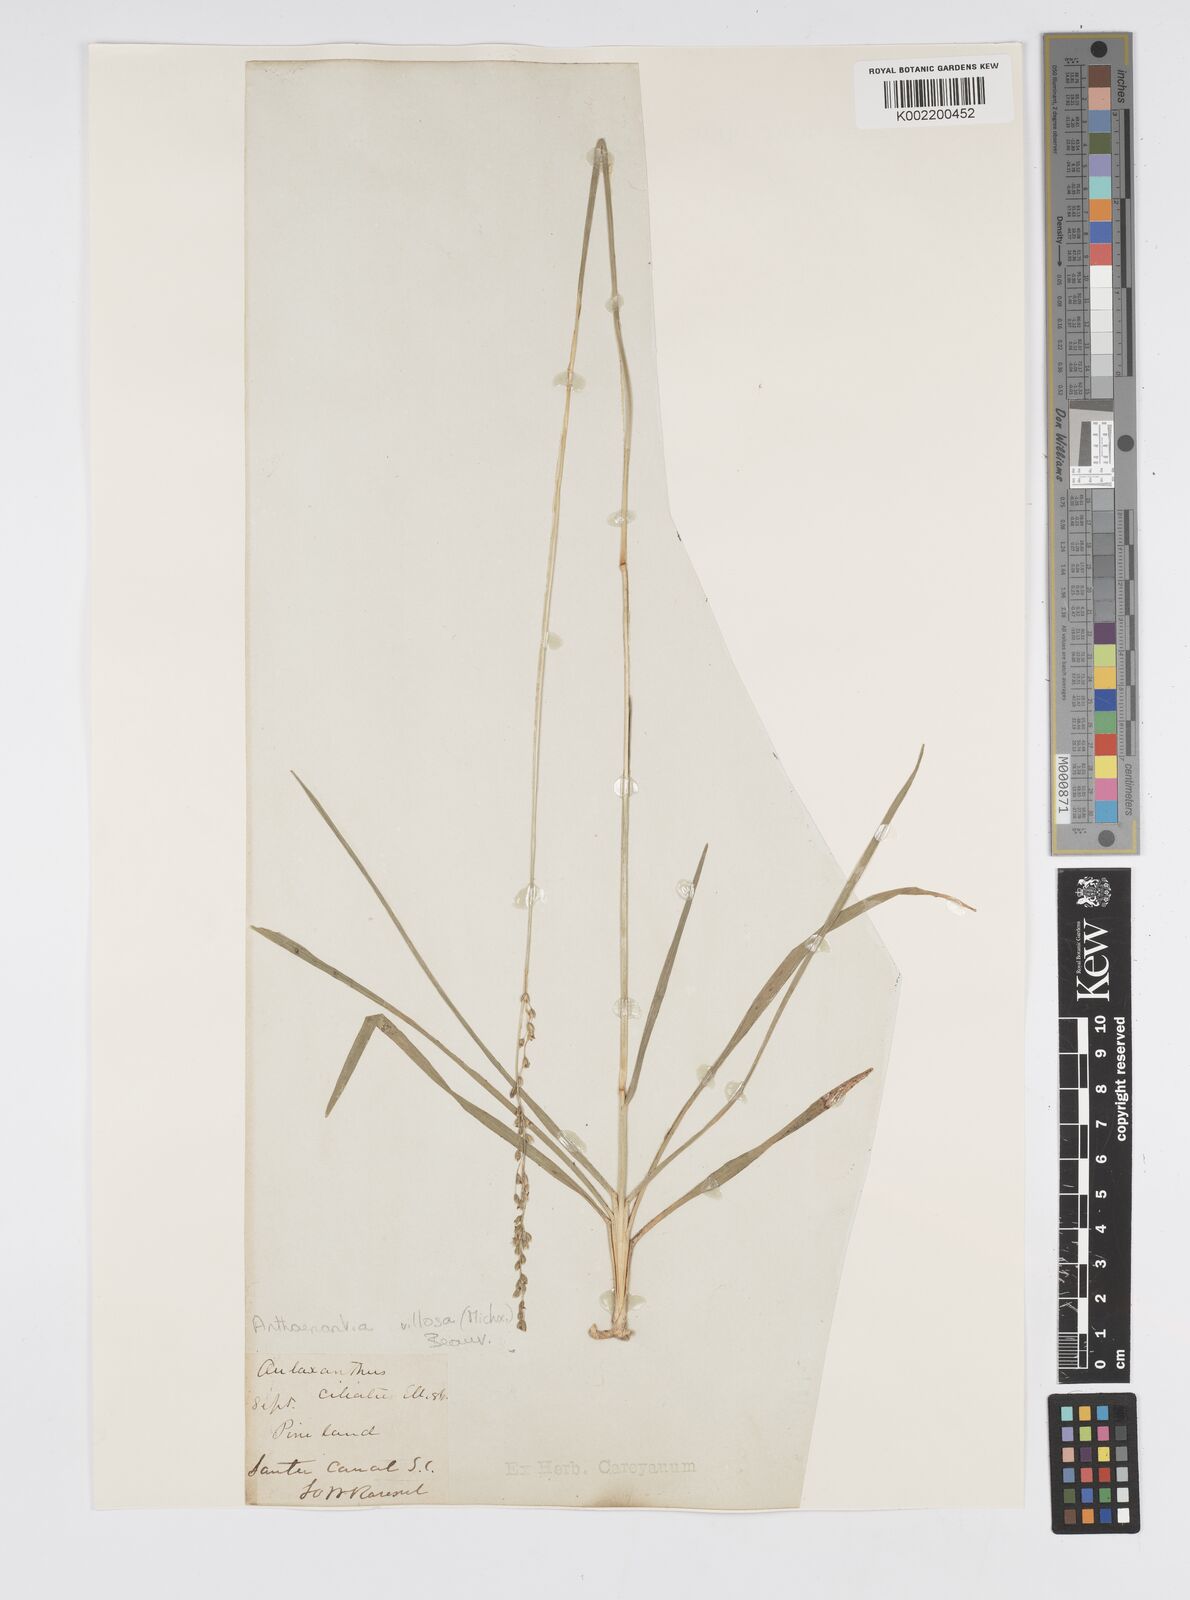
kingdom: Plantae
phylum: Tracheophyta
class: Liliopsida
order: Poales
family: Poaceae
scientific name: Poaceae
